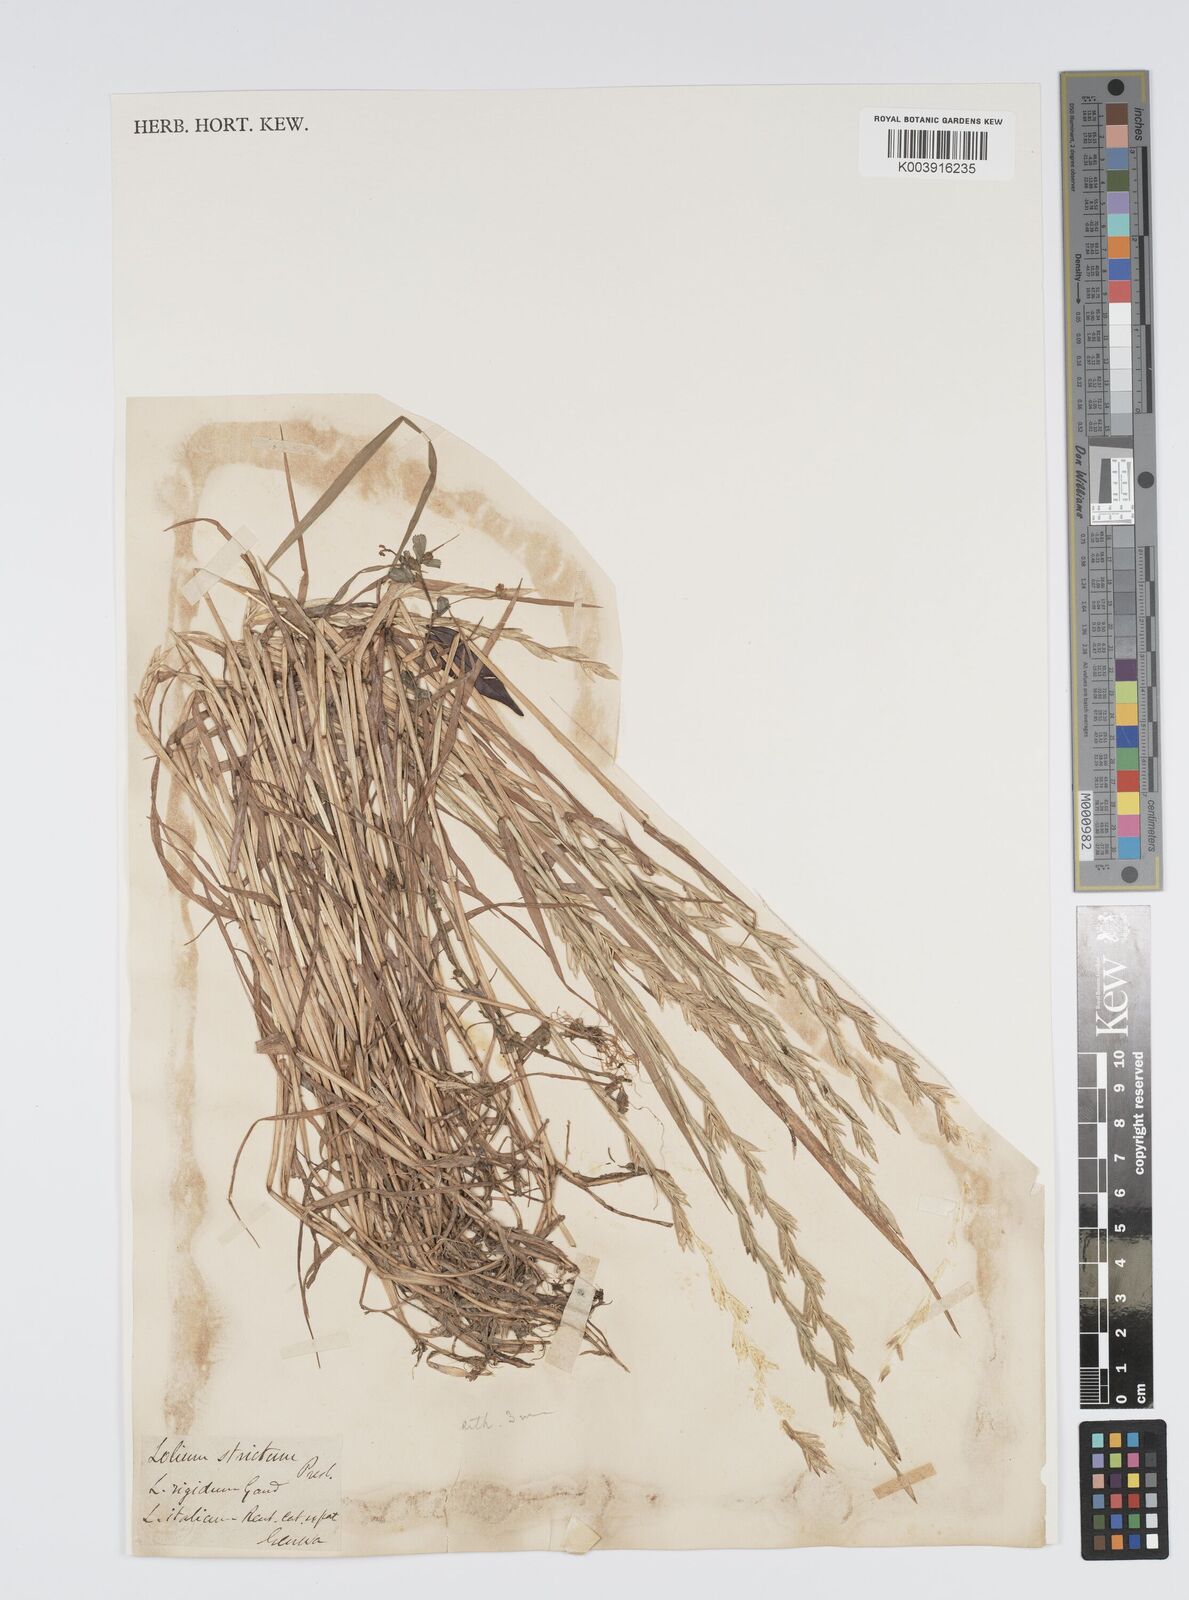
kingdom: Plantae
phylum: Tracheophyta
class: Liliopsida
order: Poales
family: Poaceae
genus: Lolium
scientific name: Lolium rigidum
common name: Wimmera ryegrass
